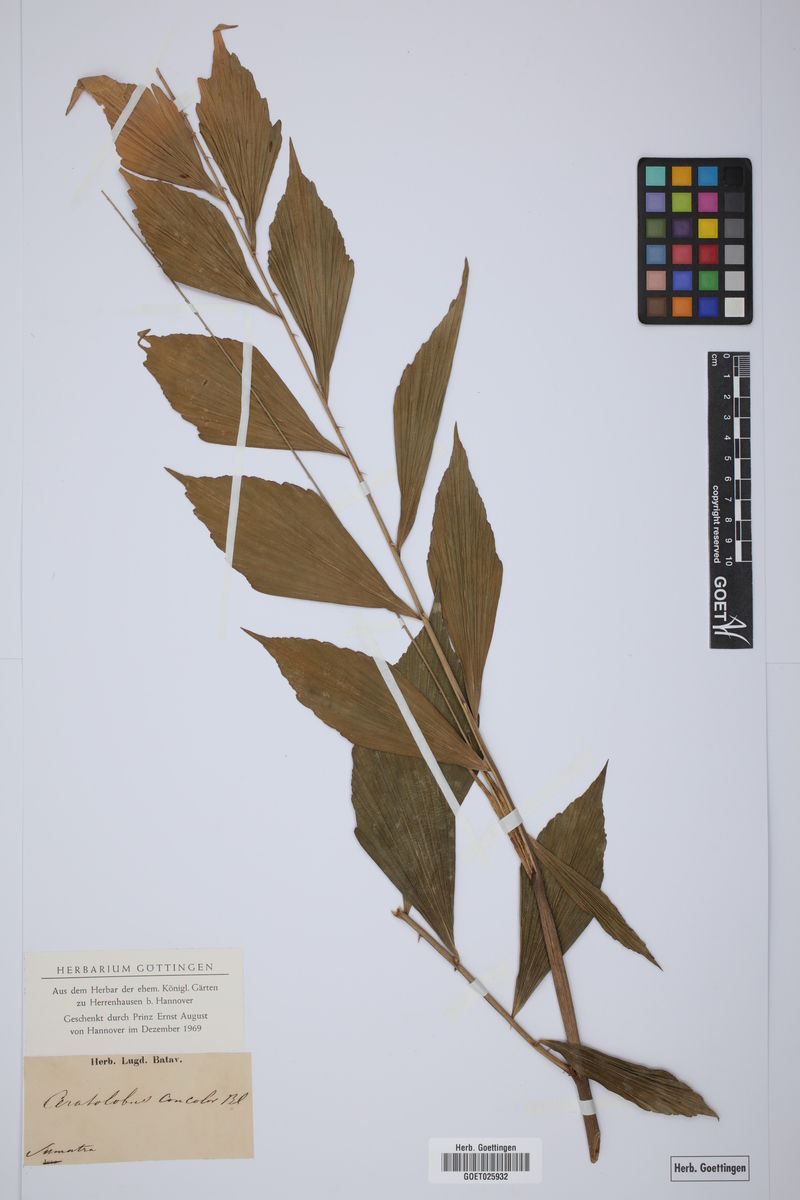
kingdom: Plantae
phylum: Tracheophyta
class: Liliopsida
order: Arecales
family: Arecaceae
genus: Calamus
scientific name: Calamus concolor
